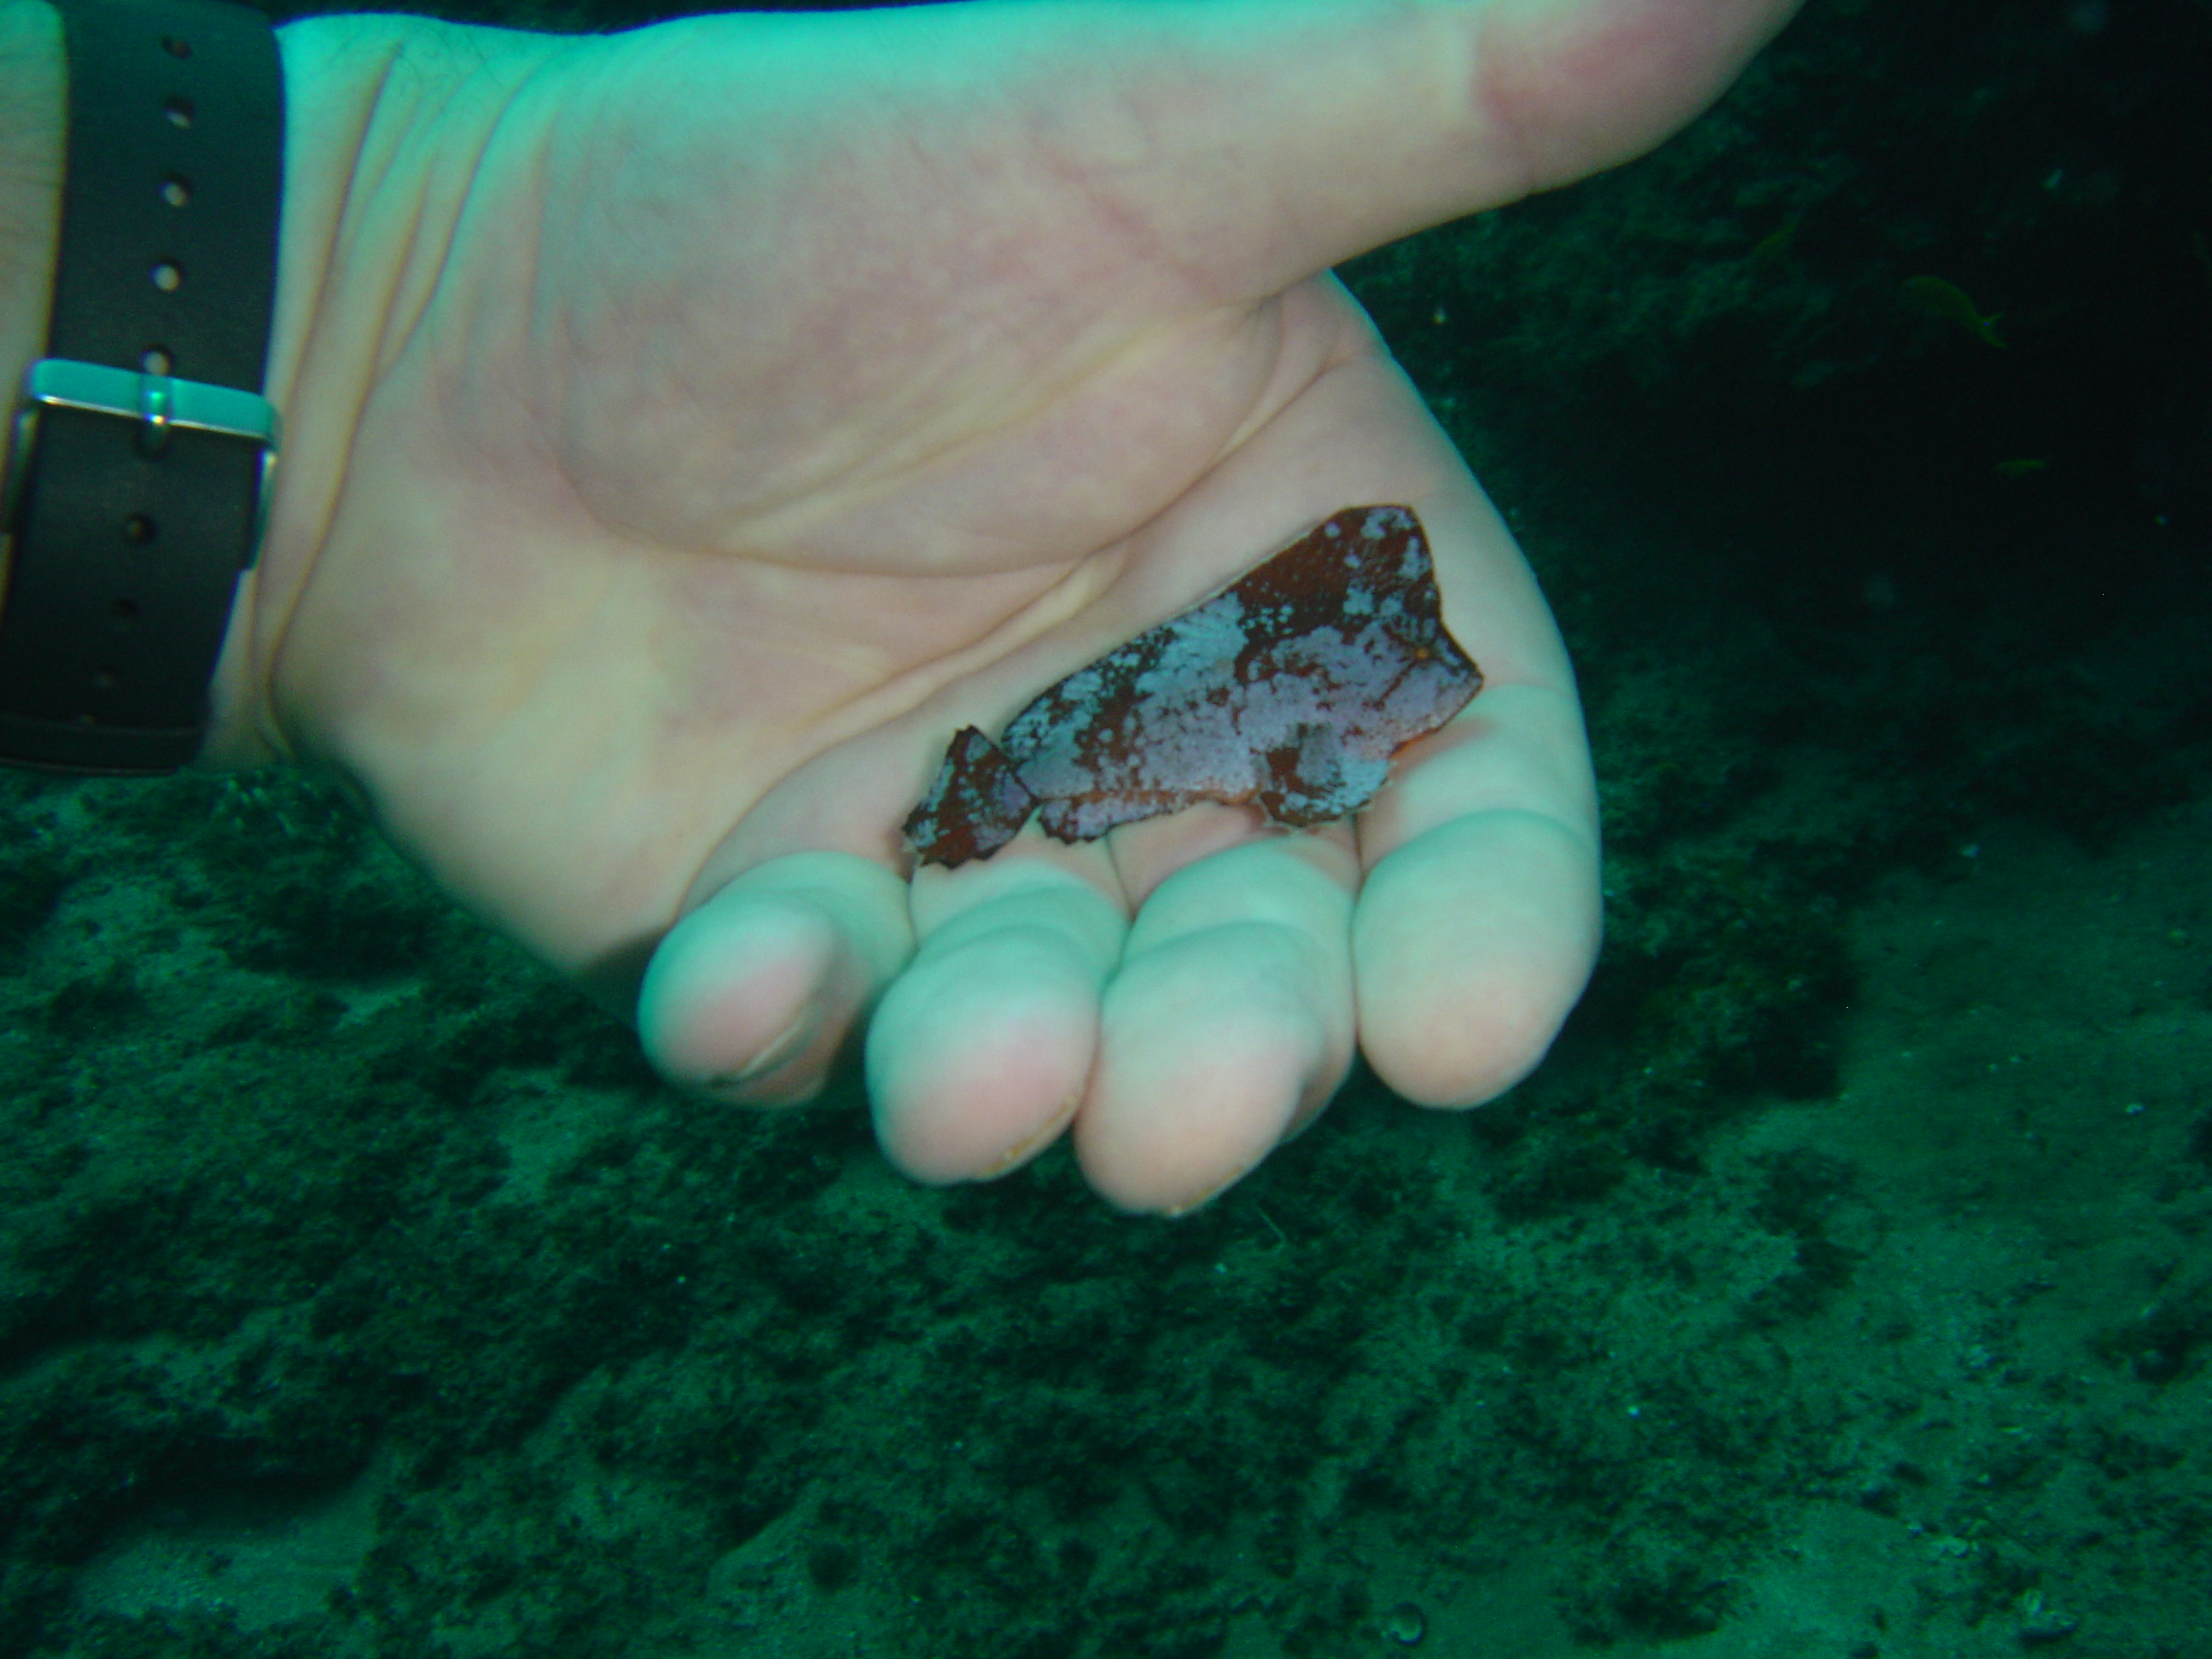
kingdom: Animalia
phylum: Chordata
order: Scorpaeniformes
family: Aploactinidae
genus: Ptarmus
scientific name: Ptarmus jubatus
